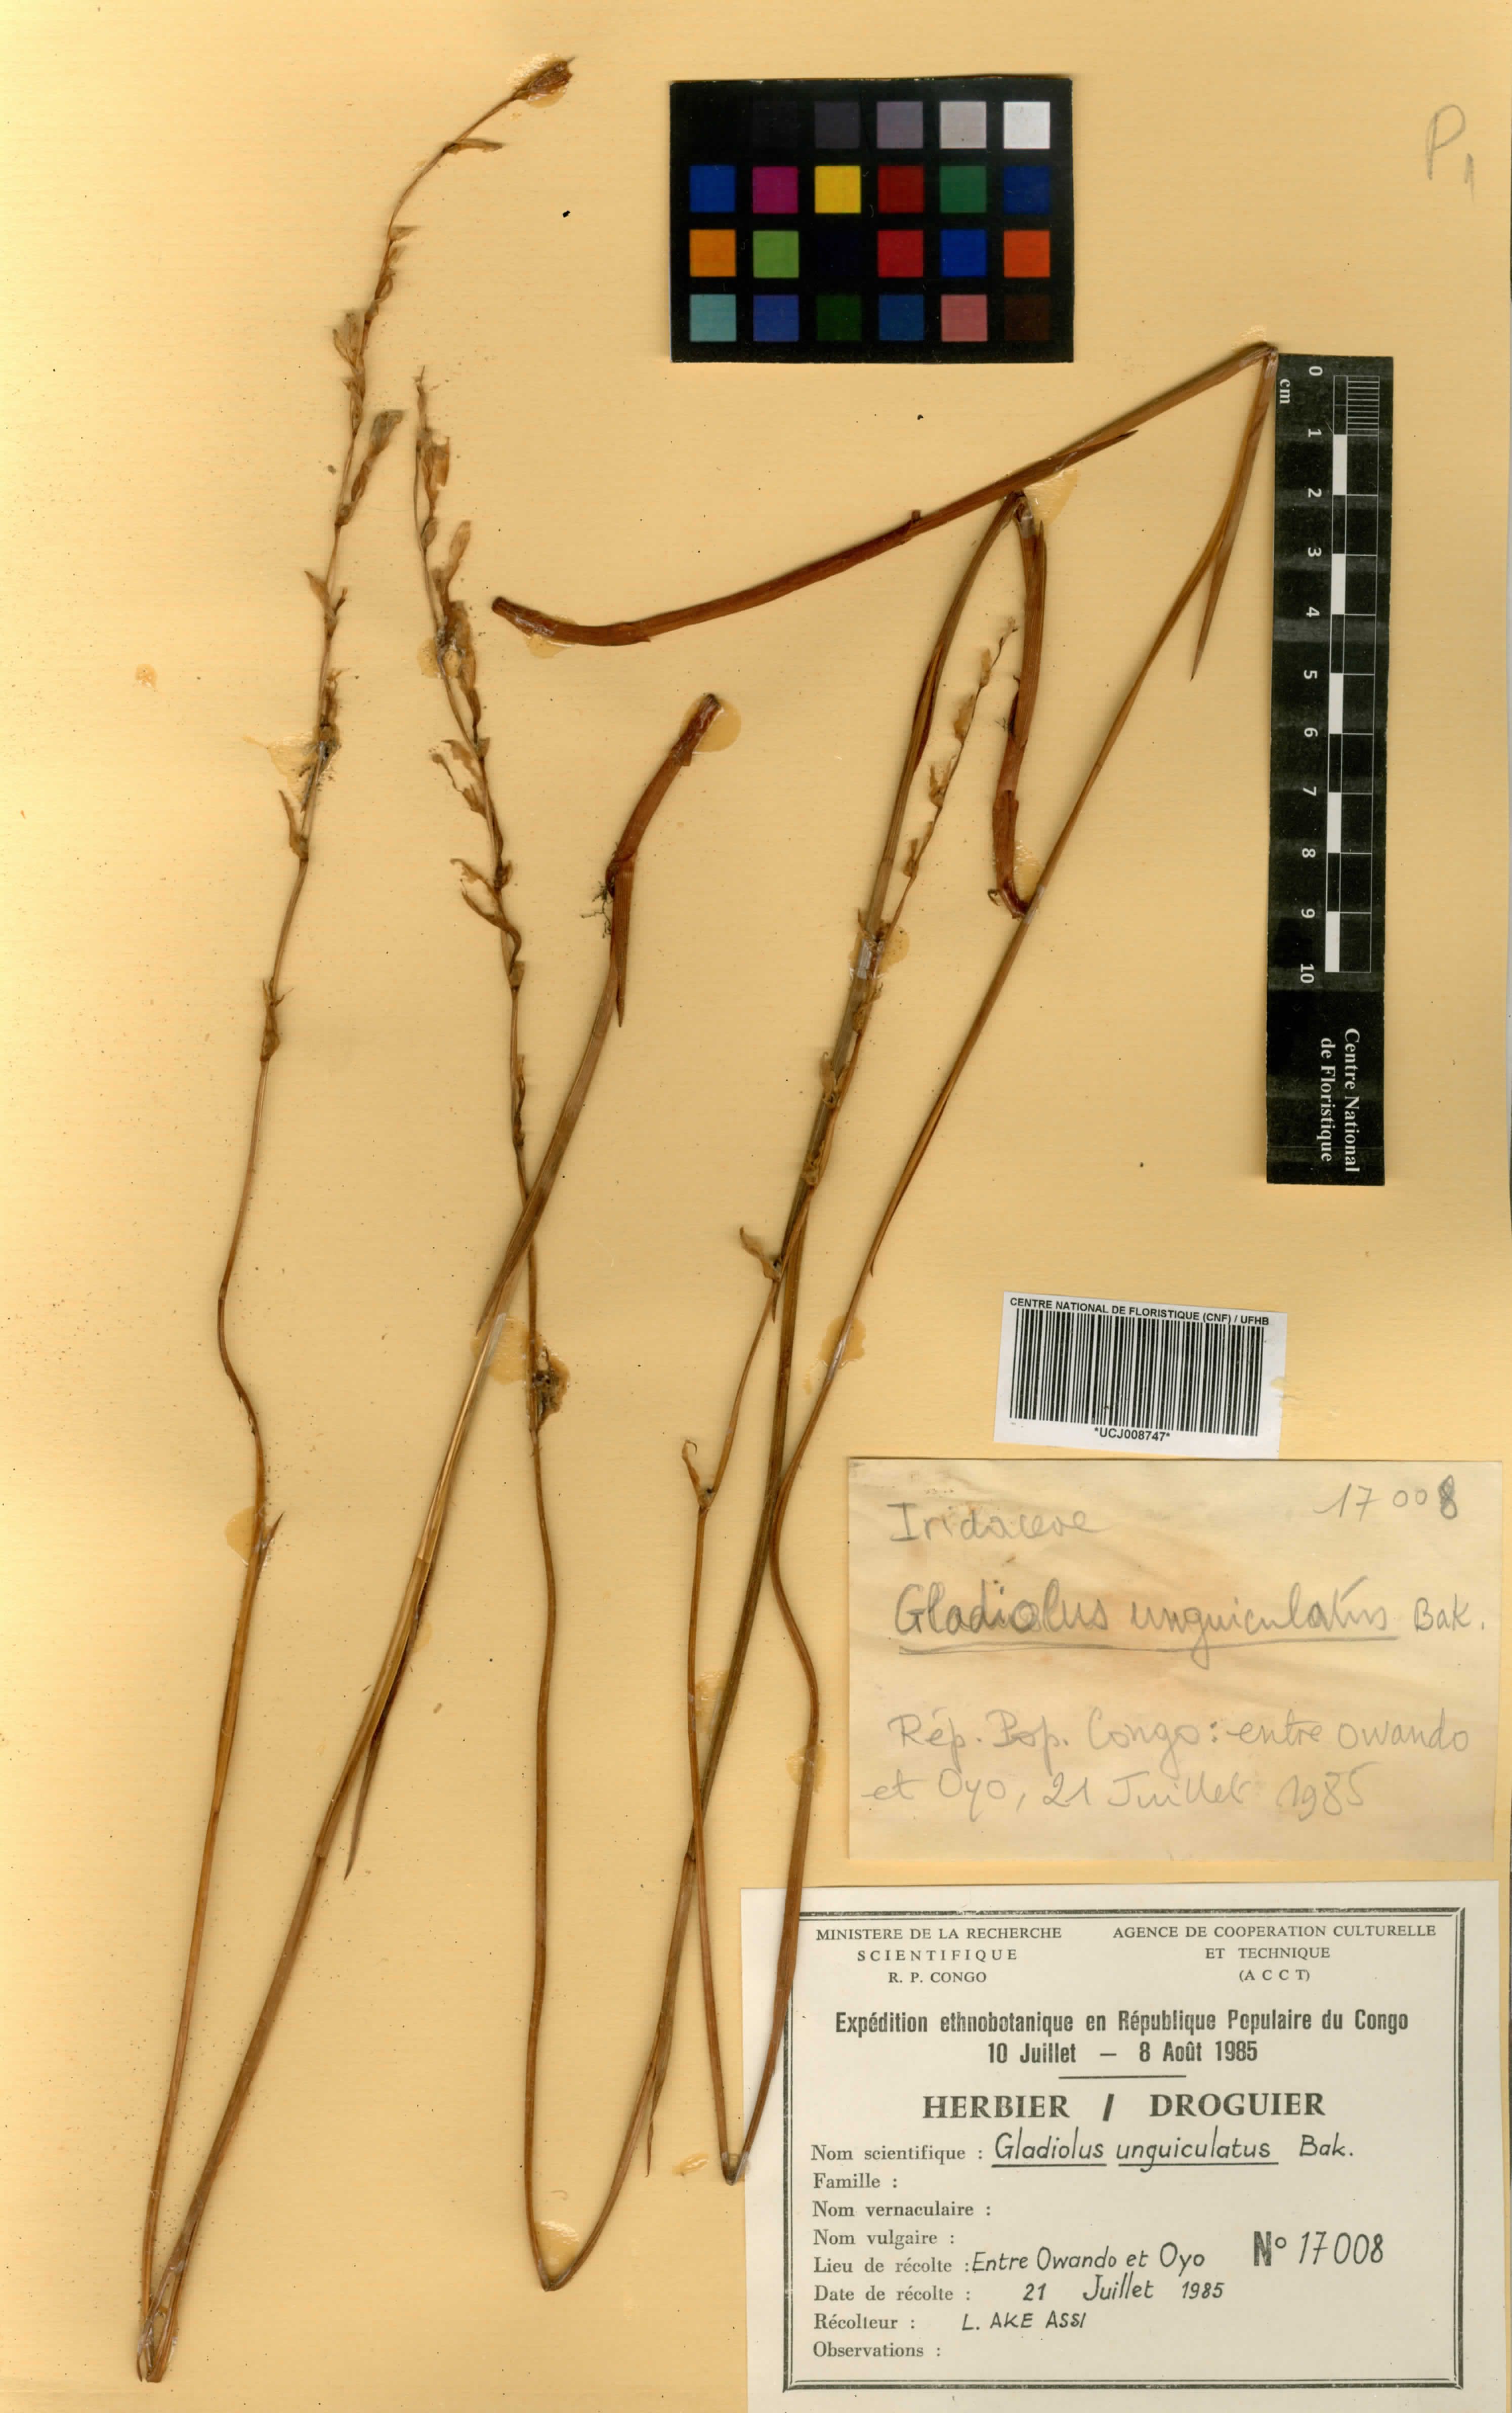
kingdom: Plantae
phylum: Tracheophyta
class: Liliopsida
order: Asparagales
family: Iridaceae
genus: Gladiolus
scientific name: Gladiolus unguiculatus
